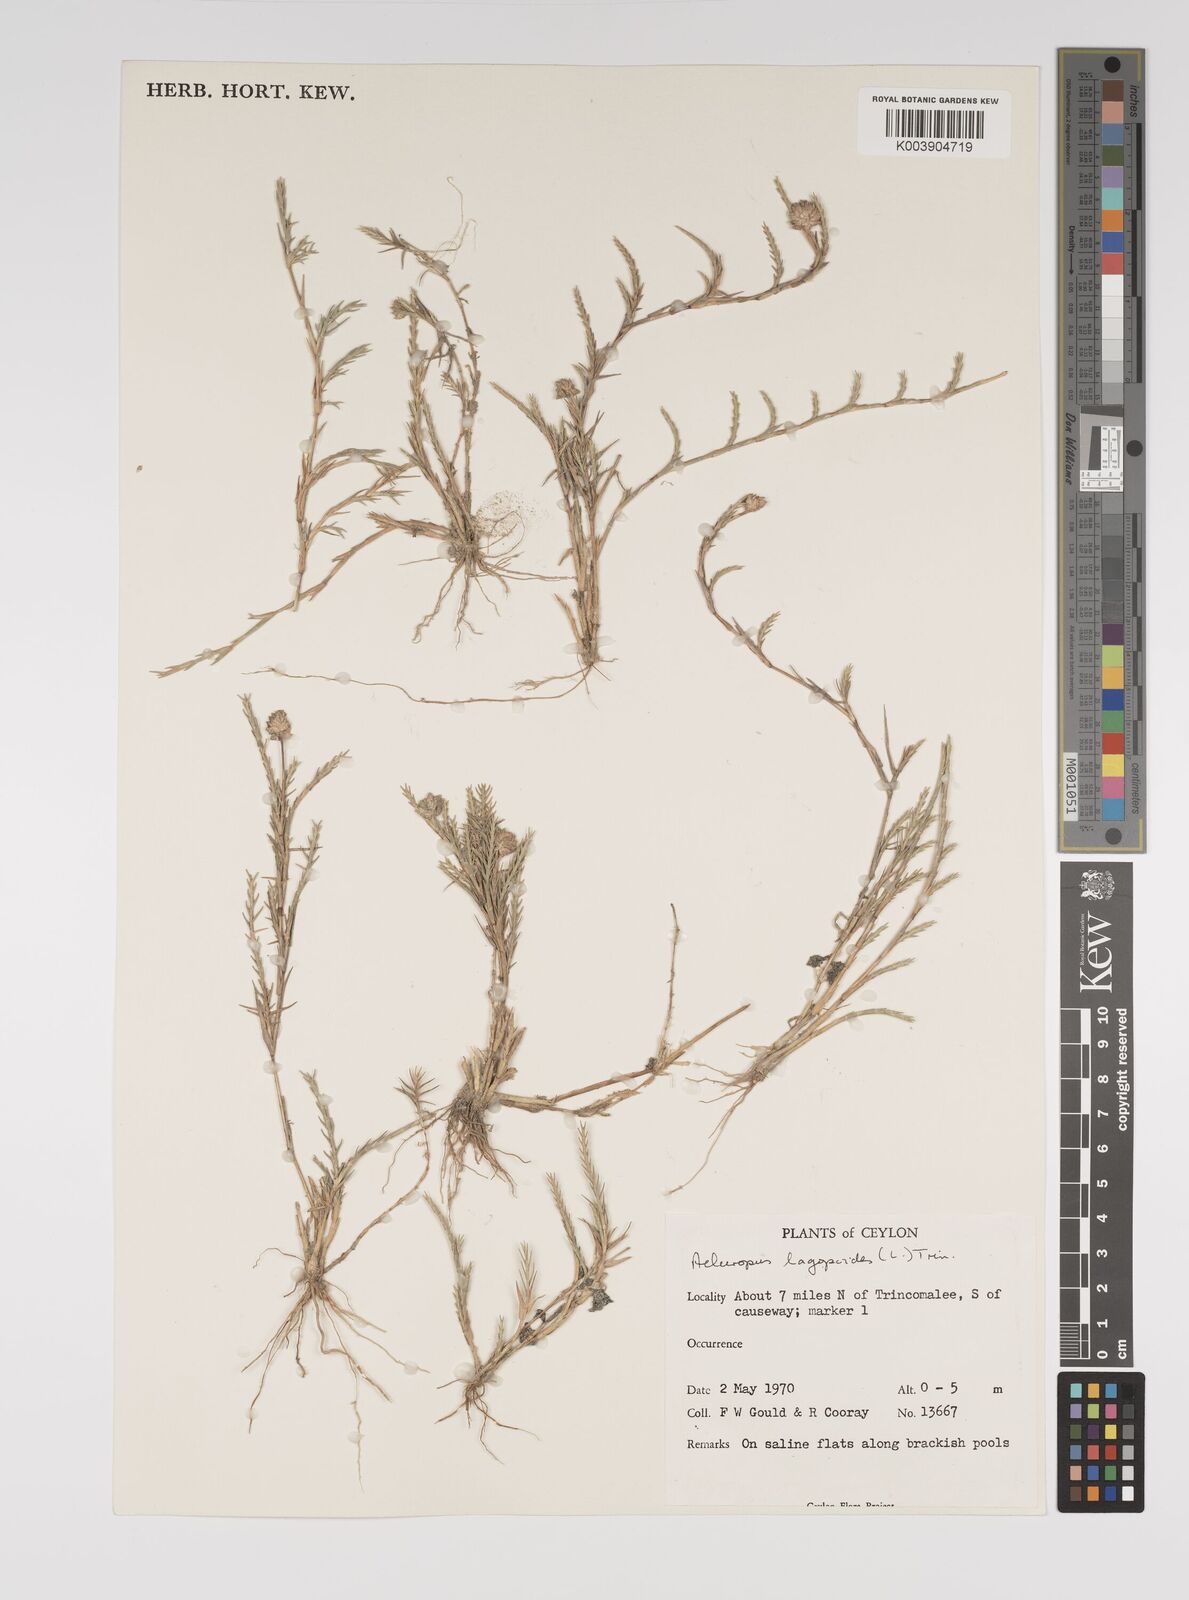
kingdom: Plantae
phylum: Tracheophyta
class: Liliopsida
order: Poales
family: Poaceae
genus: Aeluropus
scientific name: Aeluropus lagopoides
